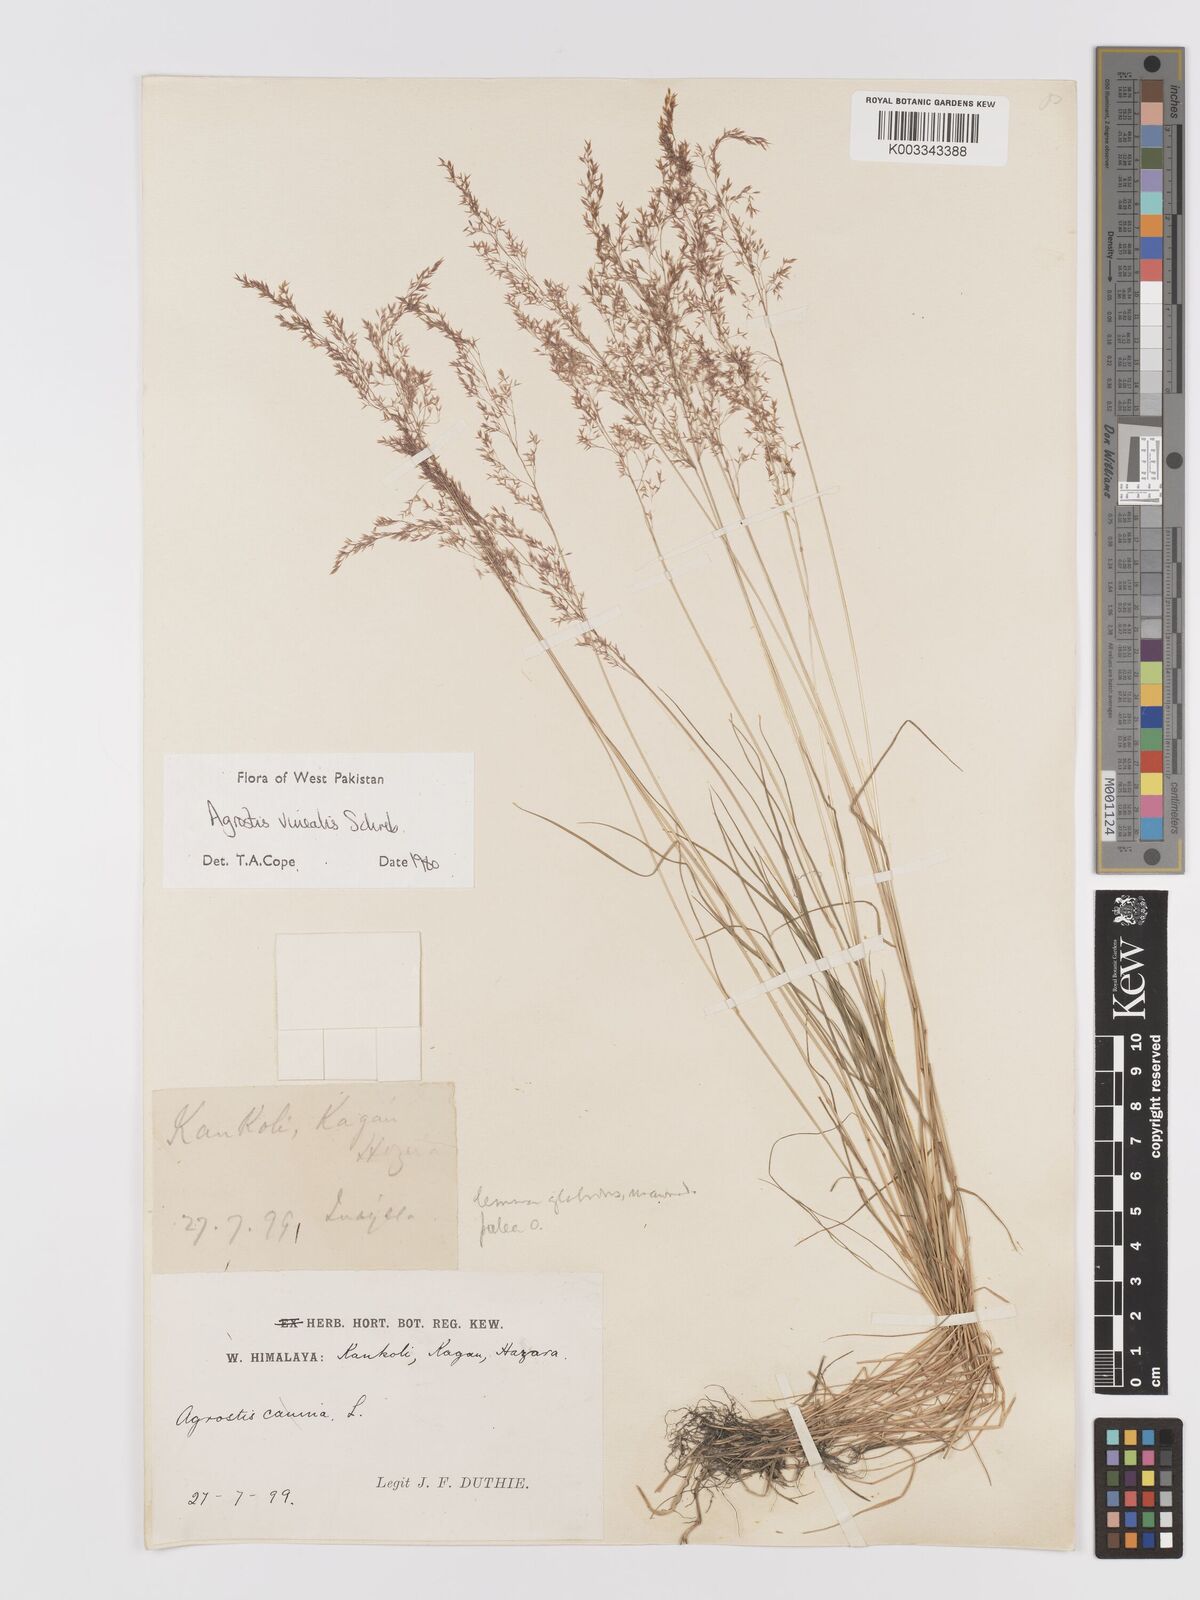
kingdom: Plantae
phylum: Tracheophyta
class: Liliopsida
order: Poales
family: Poaceae
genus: Agrostis
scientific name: Agrostis vinealis
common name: Brown bent
